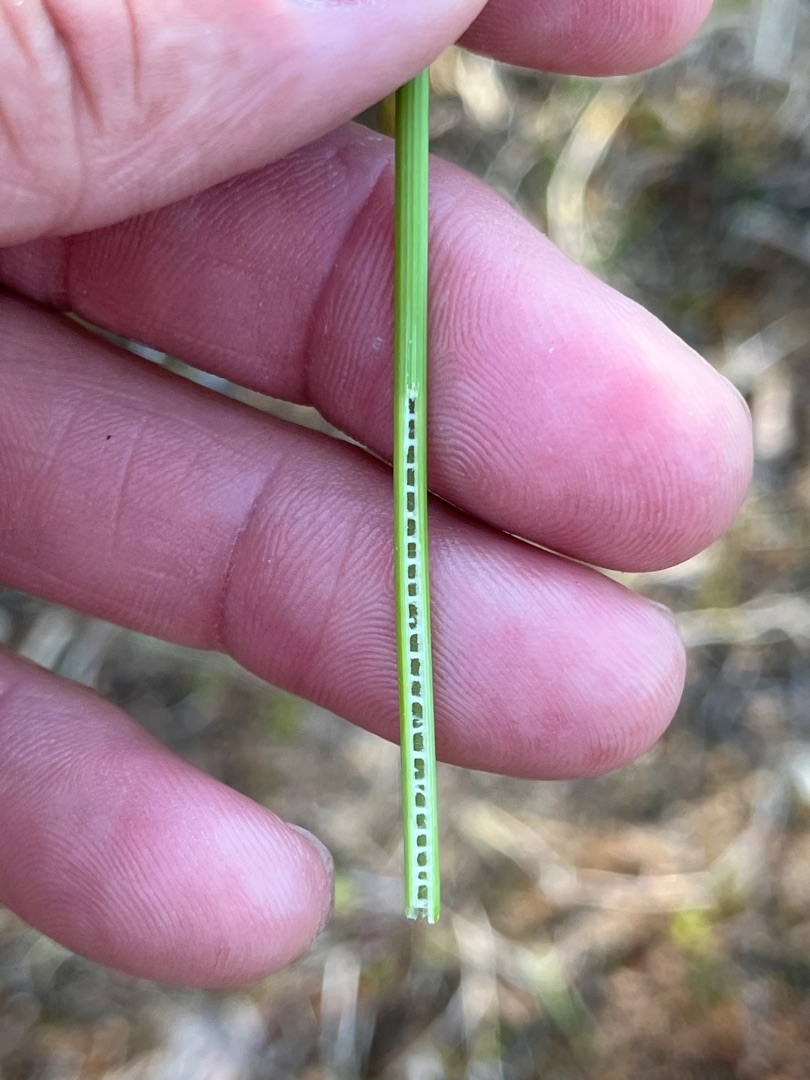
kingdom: Plantae
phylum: Tracheophyta
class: Liliopsida
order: Poales
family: Juncaceae
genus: Juncus
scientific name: Juncus inflexus
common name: Blågrå siv
